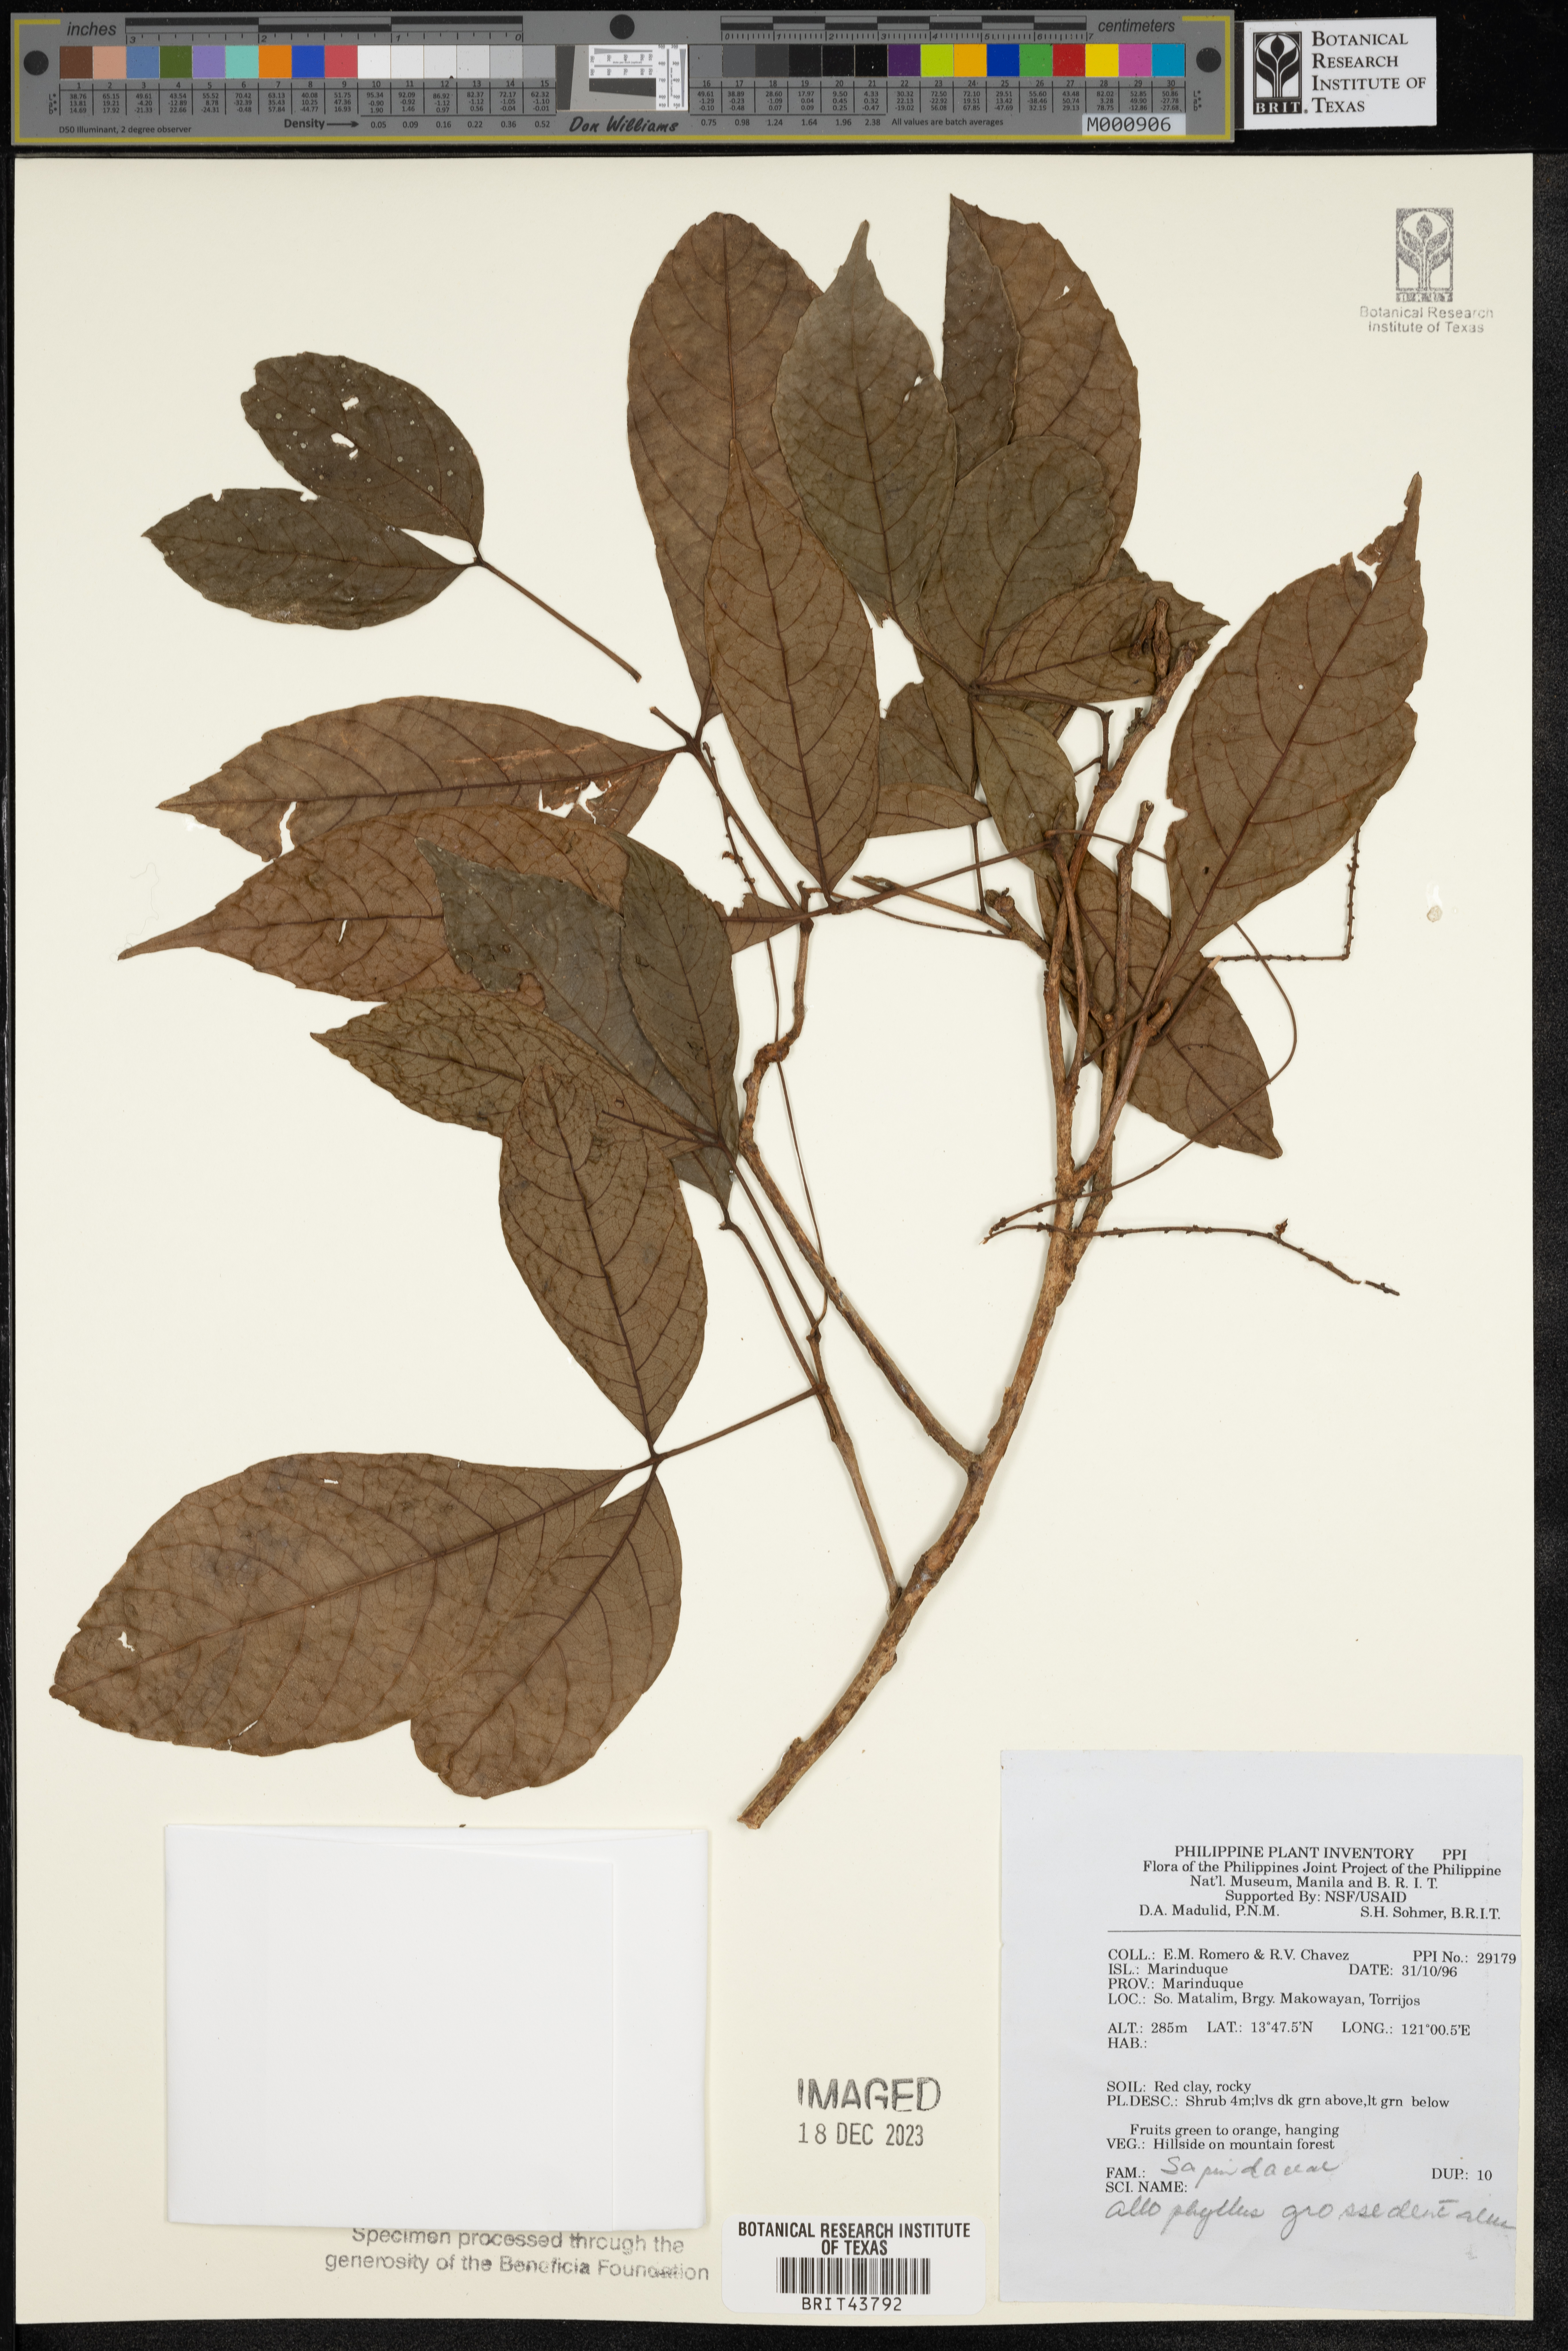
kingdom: Plantae
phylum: Tracheophyta
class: Magnoliopsida
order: Sapindales
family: Sapindaceae
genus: Allophylus
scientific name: Allophylus grossedentatus
